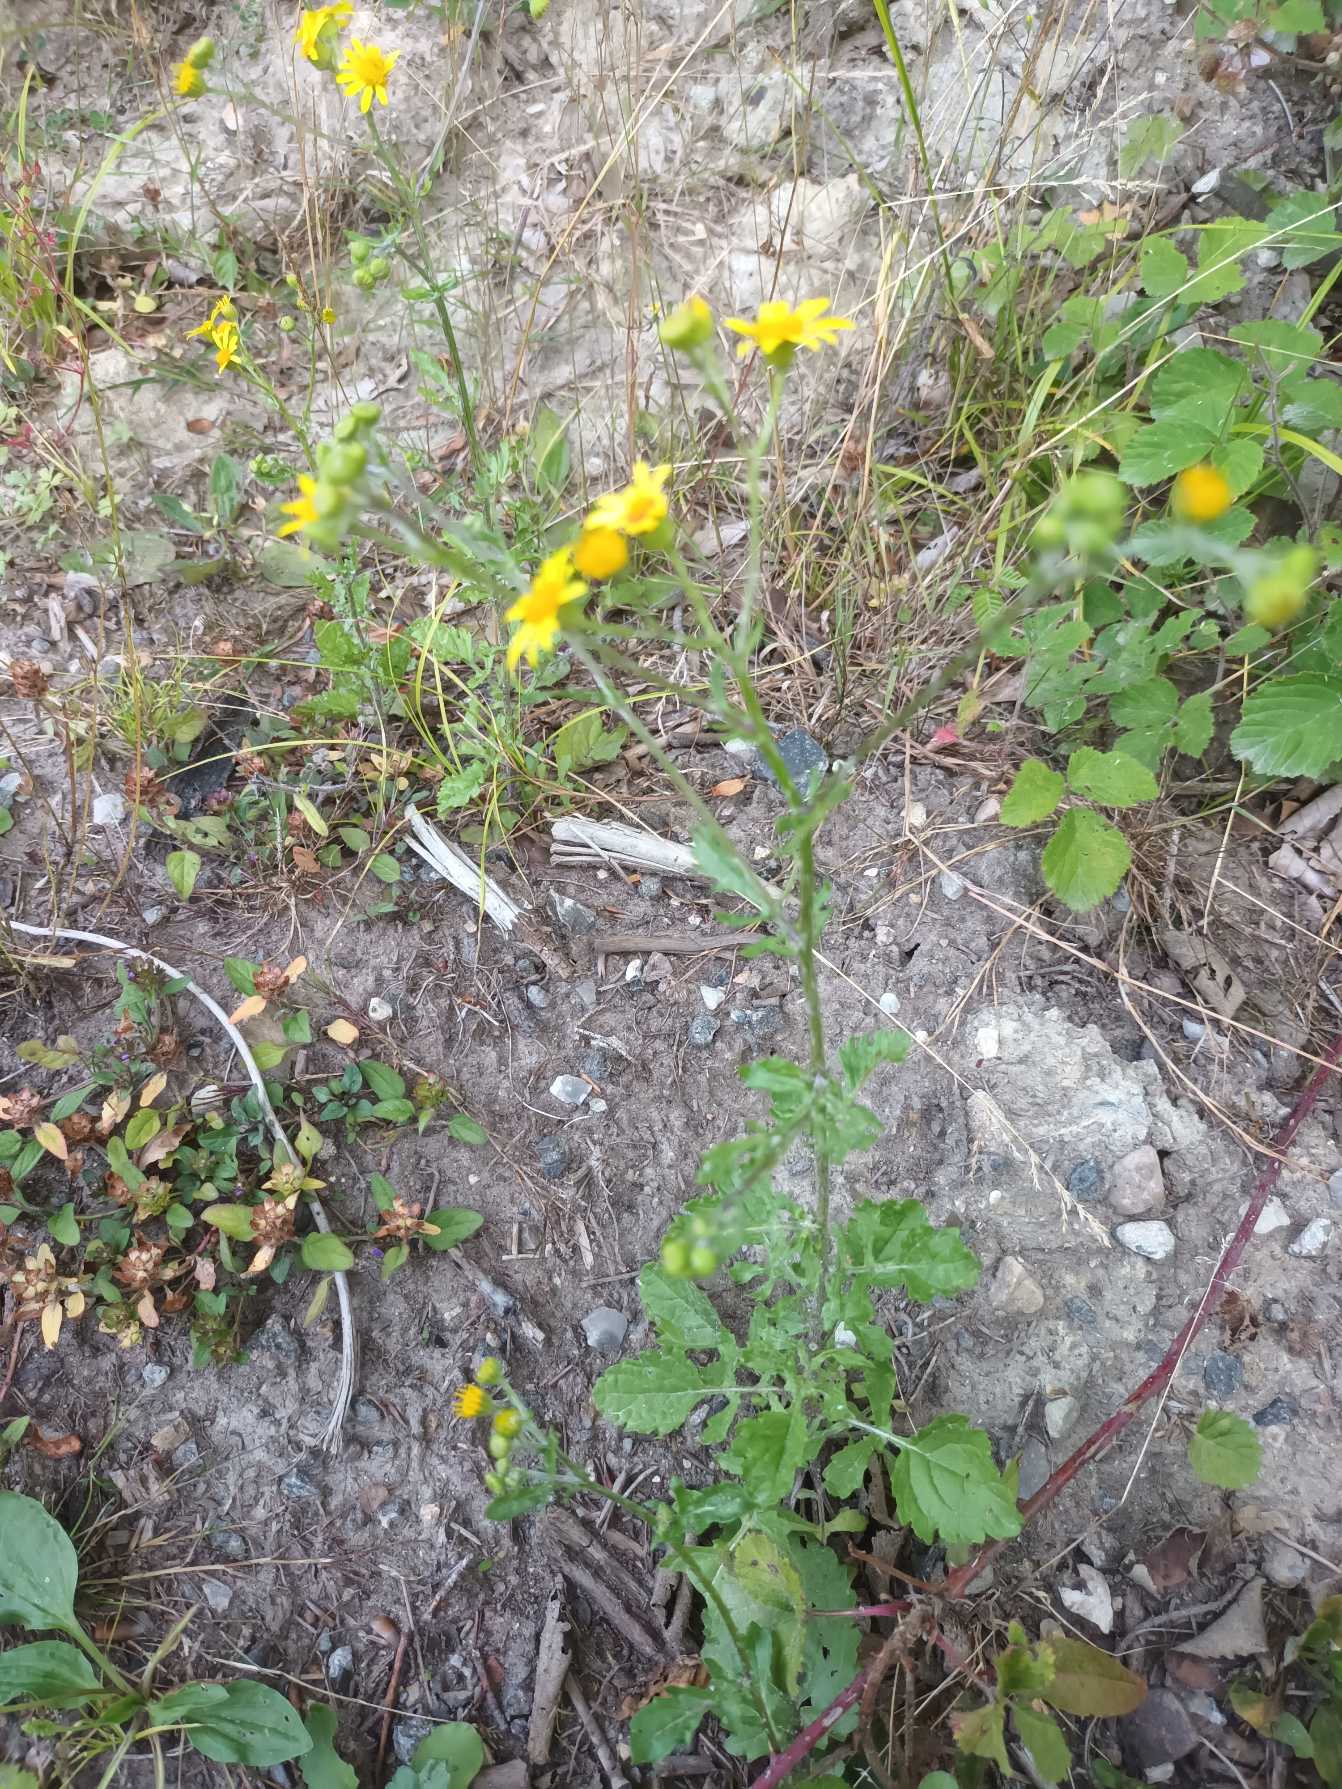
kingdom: Plantae
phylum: Tracheophyta
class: Magnoliopsida
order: Asterales
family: Asteraceae
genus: Jacobaea
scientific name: Jacobaea erratica
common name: Småblomstret brandbæger
